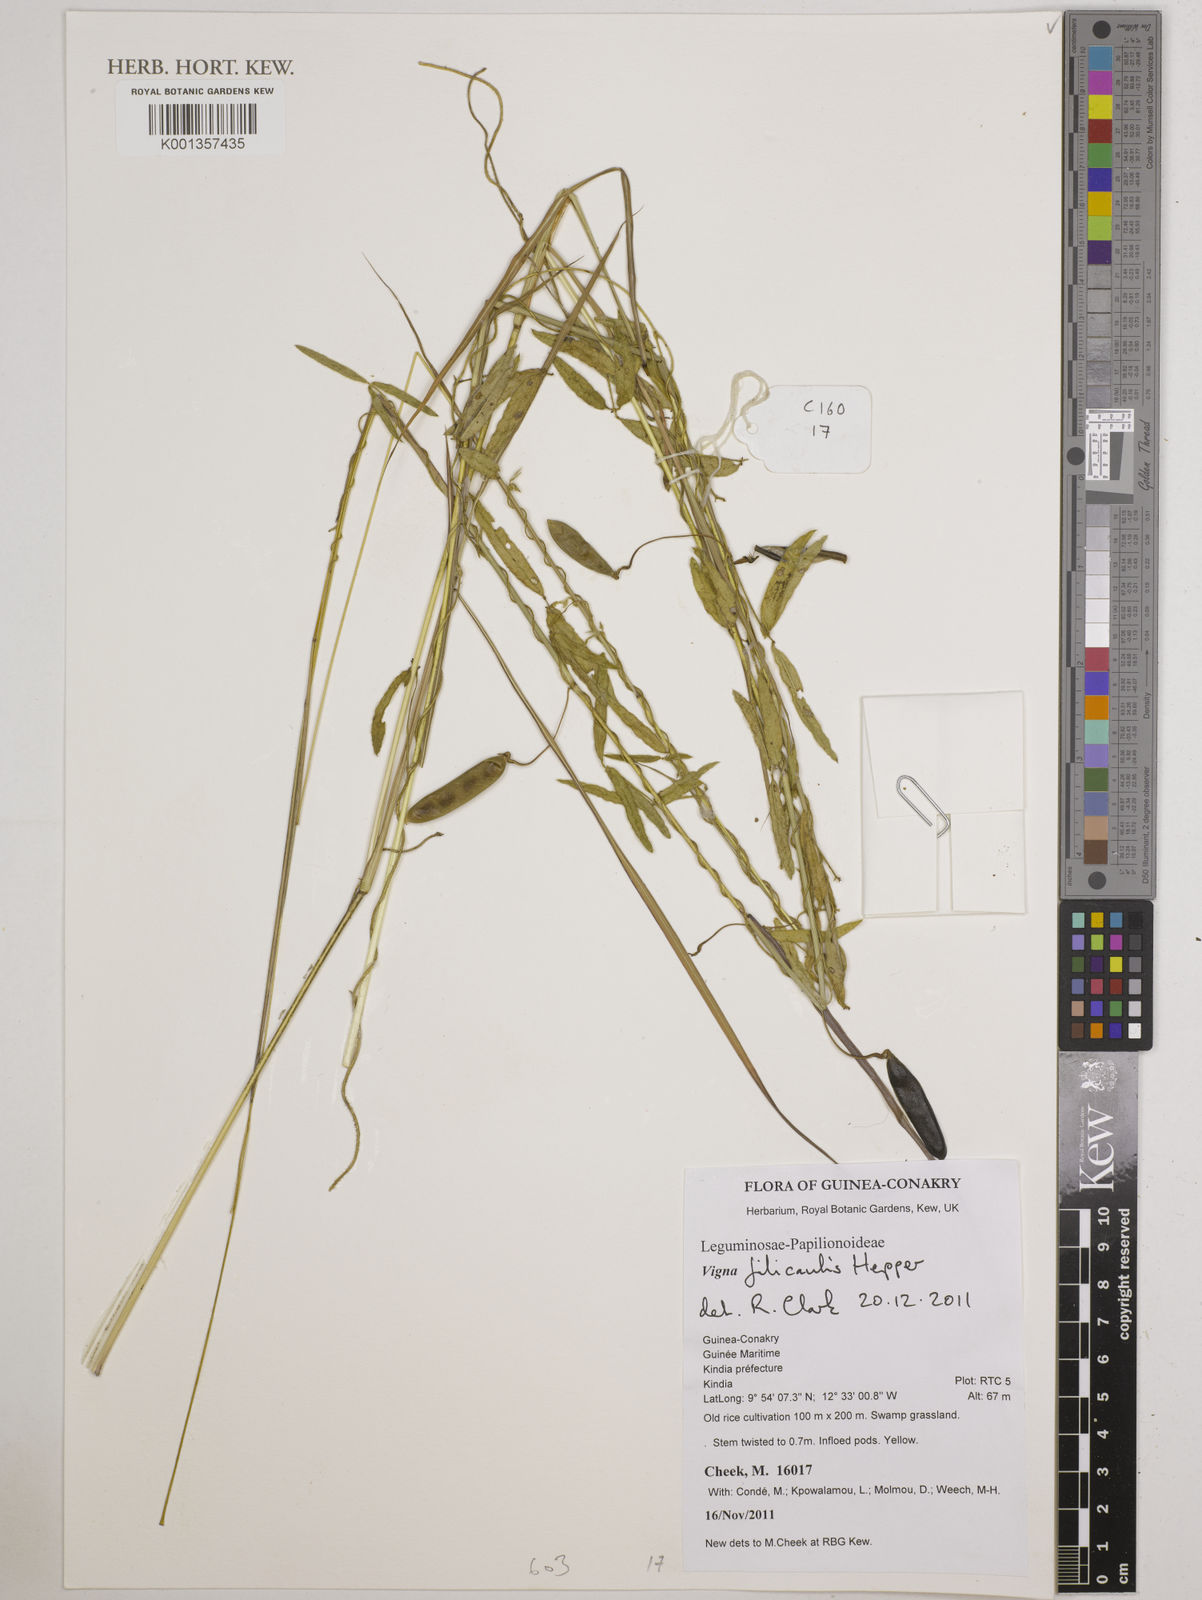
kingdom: Plantae
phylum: Tracheophyta
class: Magnoliopsida
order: Fabales
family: Fabaceae
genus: Vigna
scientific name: Vigna filicaulis
